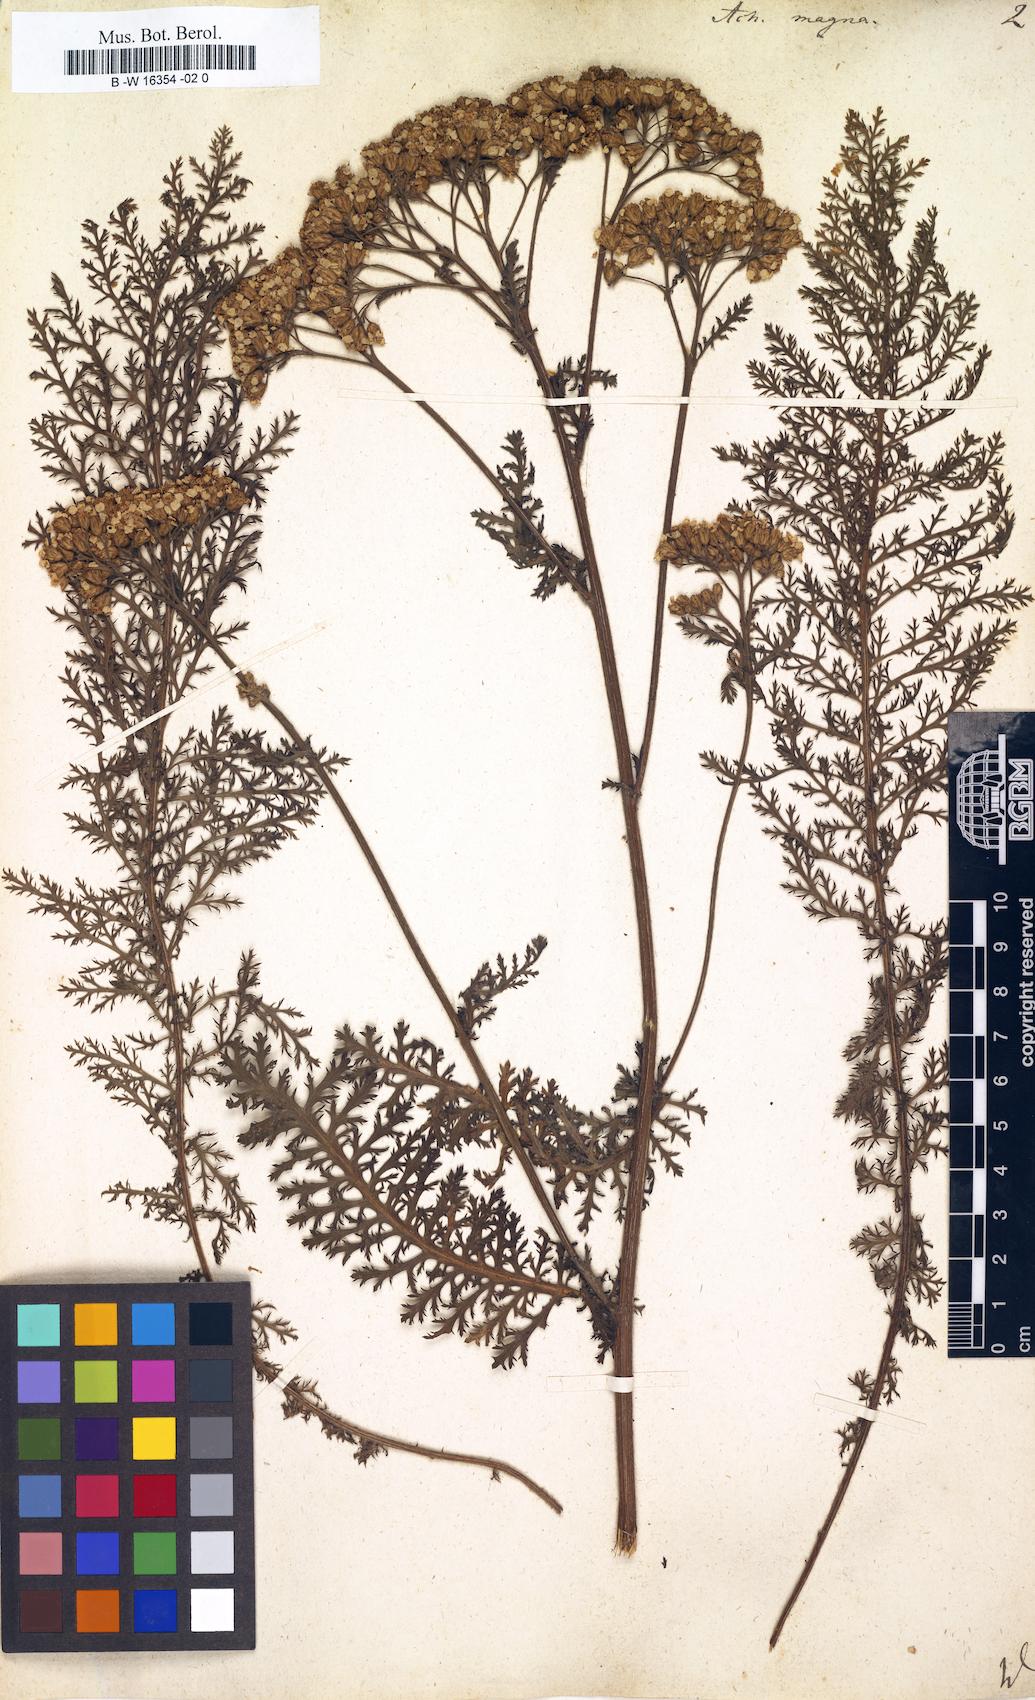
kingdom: Plantae
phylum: Tracheophyta
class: Magnoliopsida
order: Asterales
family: Asteraceae
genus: Achillea
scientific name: Achillea millefolium
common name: Yarrow
